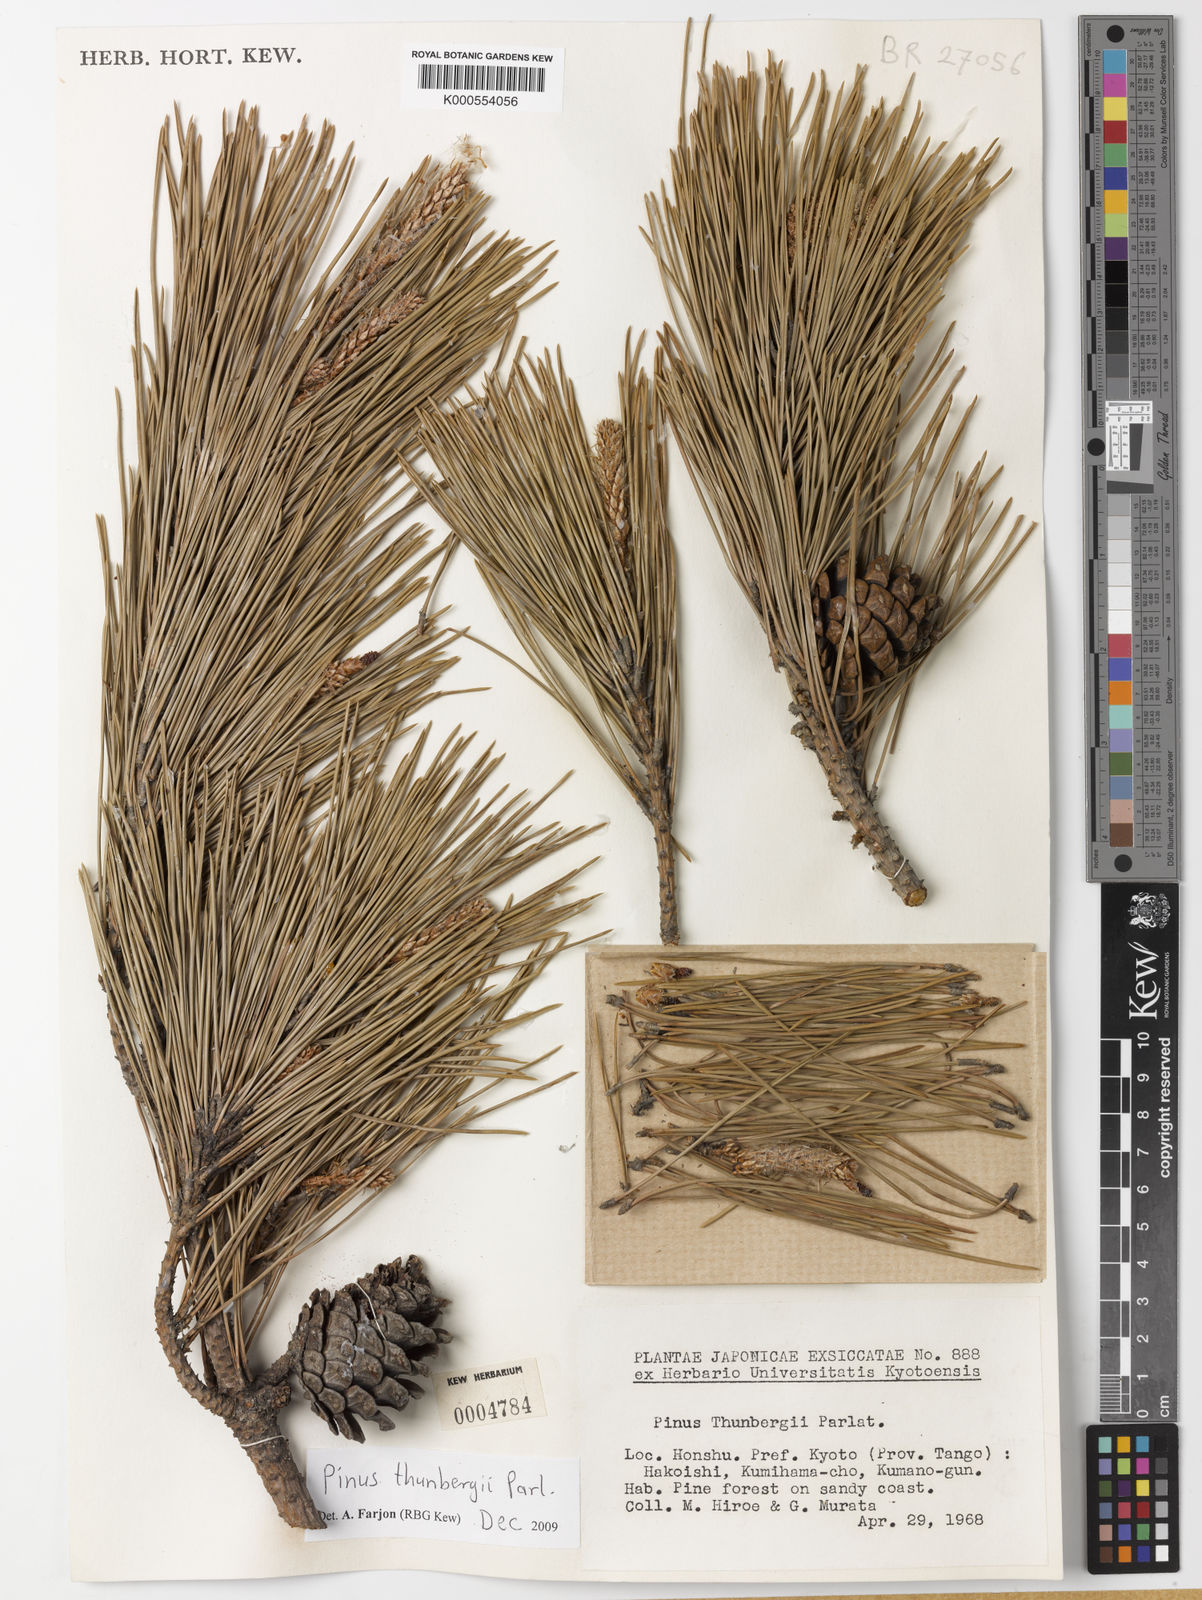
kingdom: Plantae
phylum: Tracheophyta
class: Pinopsida
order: Pinales
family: Pinaceae
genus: Pinus
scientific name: Pinus thunbergii
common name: Japanese black pine
